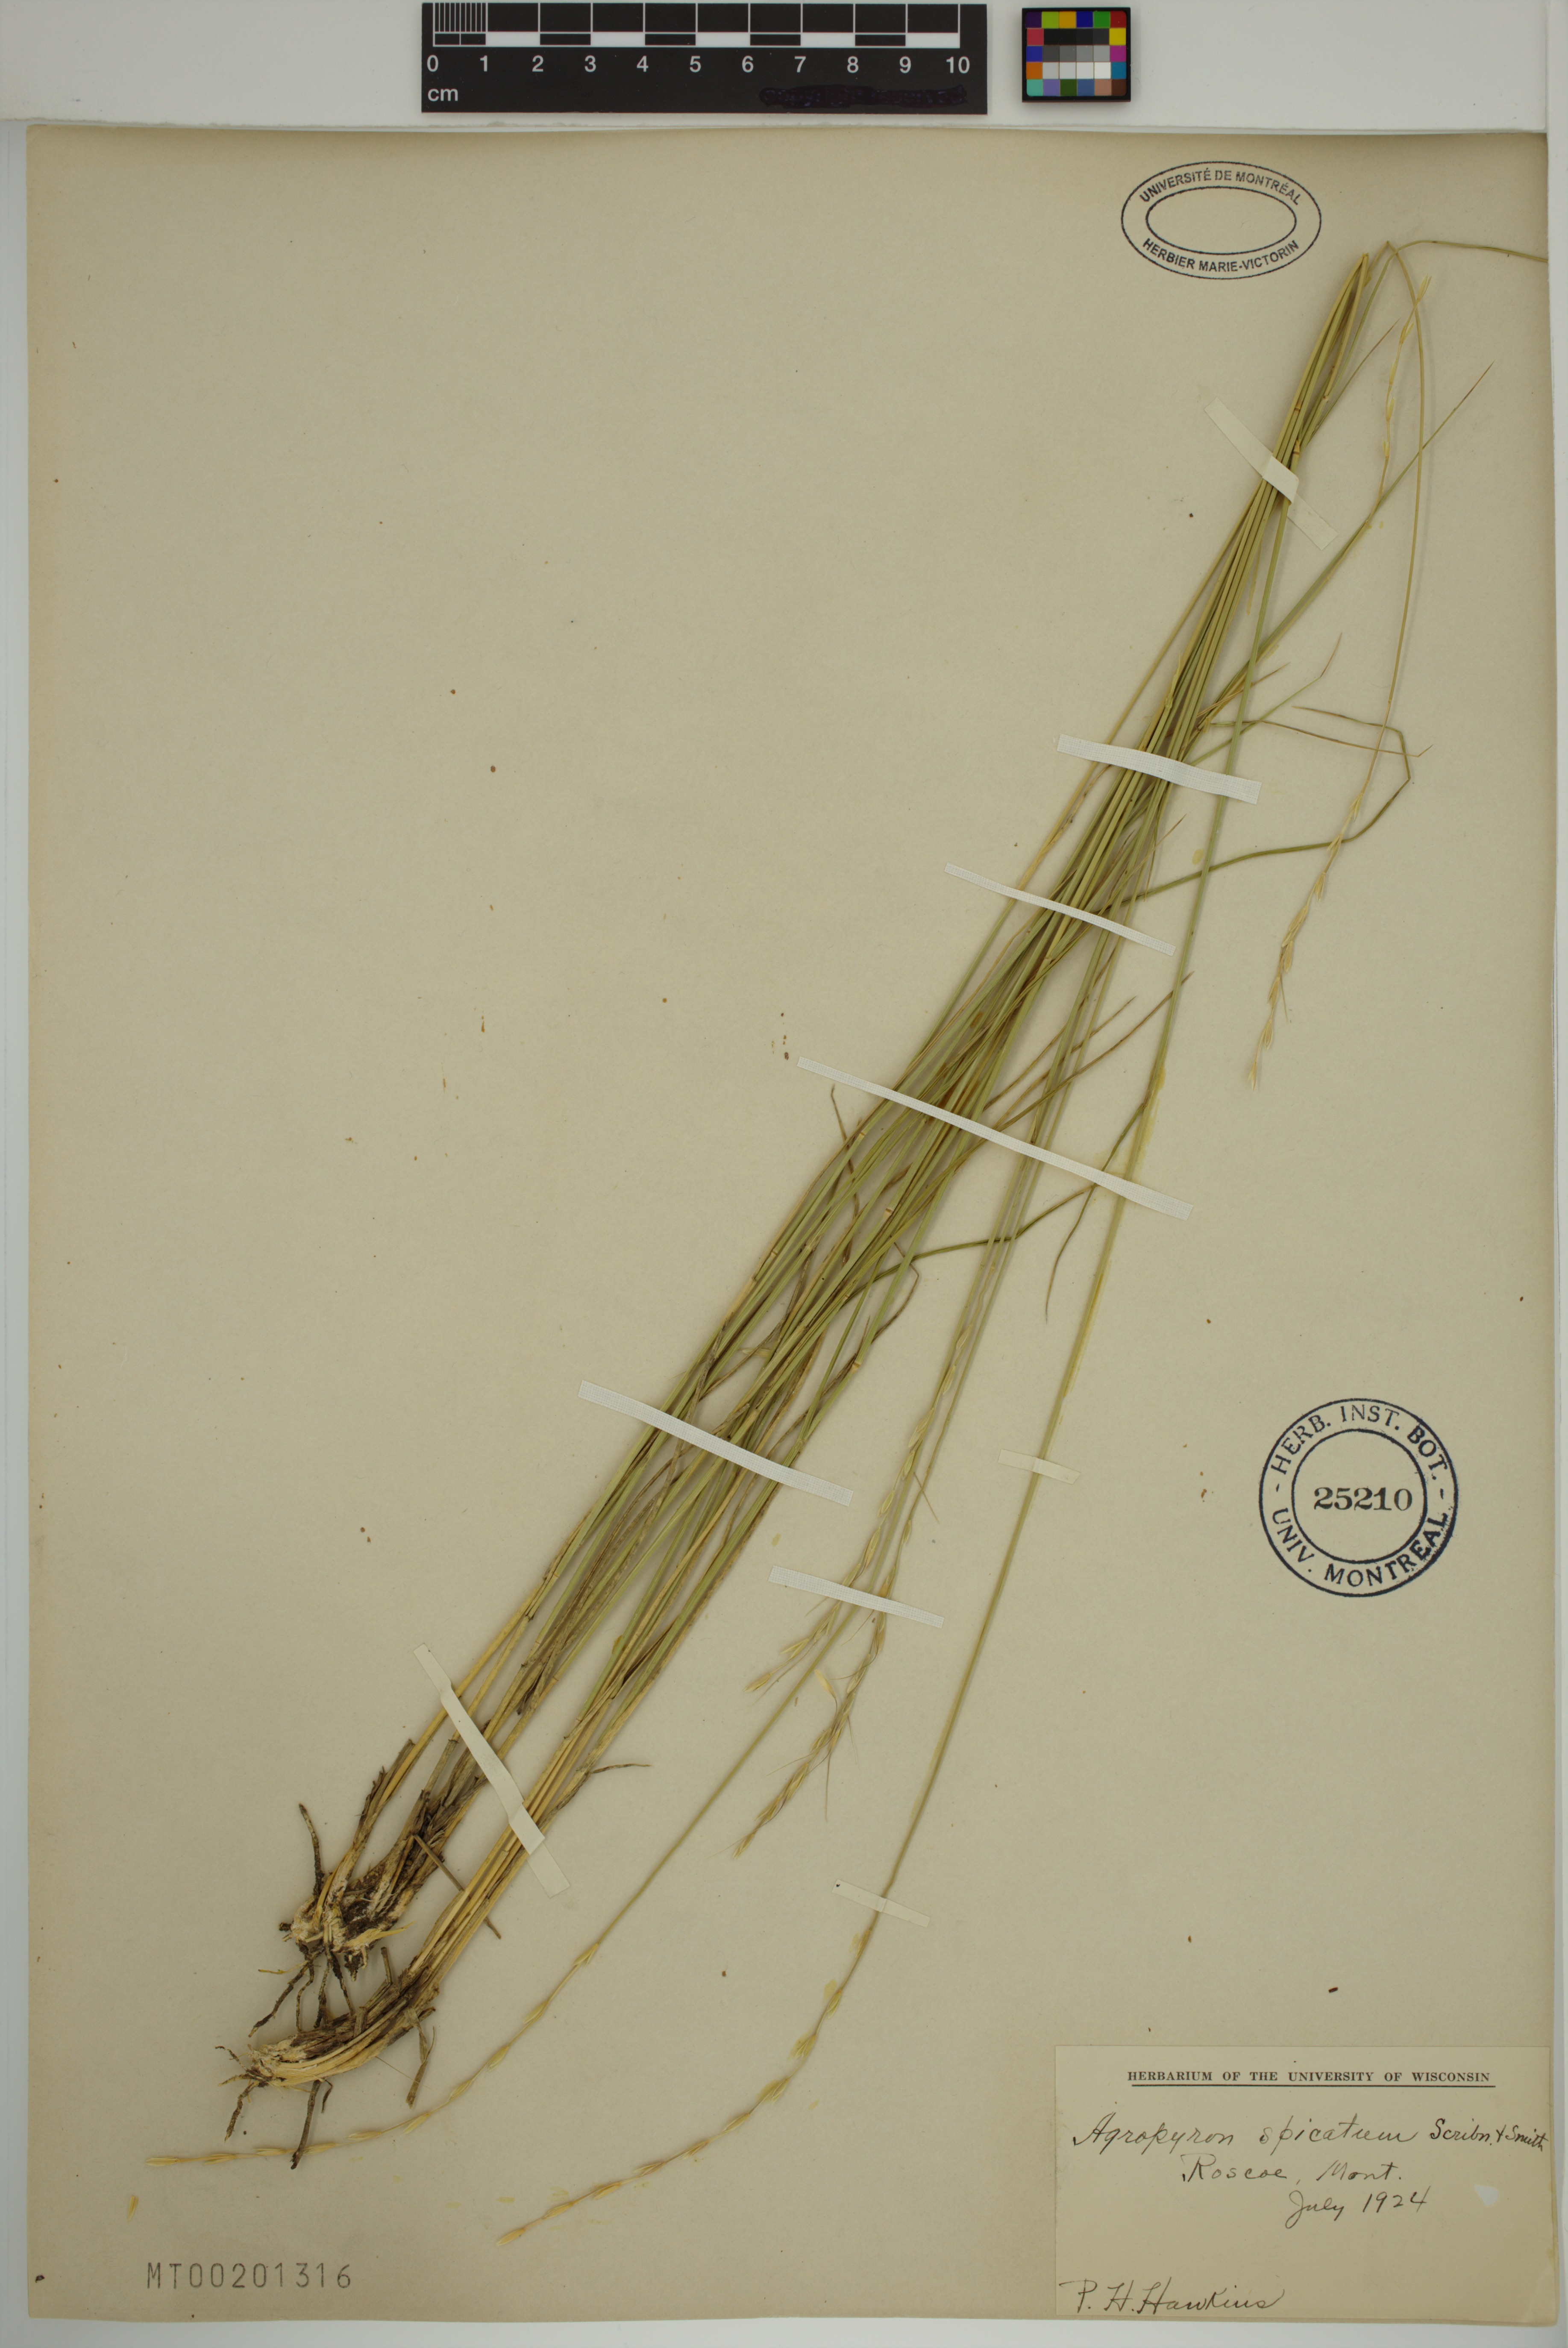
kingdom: Plantae
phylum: Tracheophyta
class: Liliopsida
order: Poales
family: Poaceae
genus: Pseudoroegneria
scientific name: Pseudoroegneria spicata
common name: Bluebunch wheatgrass
